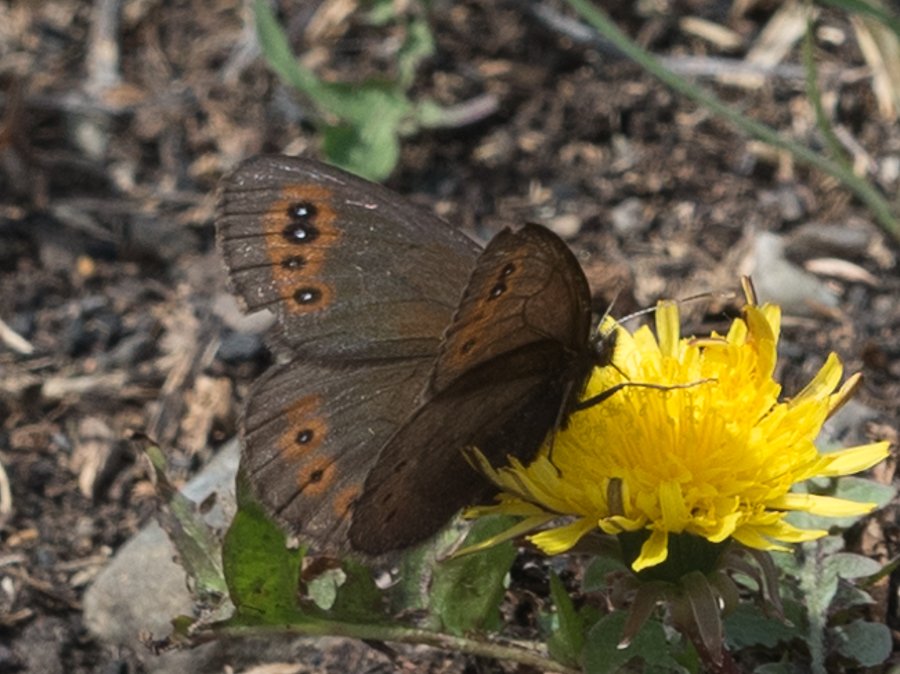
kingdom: Animalia
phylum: Arthropoda
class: Insecta
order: Lepidoptera
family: Nymphalidae
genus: Erebia
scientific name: Erebia epipsodea
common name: Common Alpine
